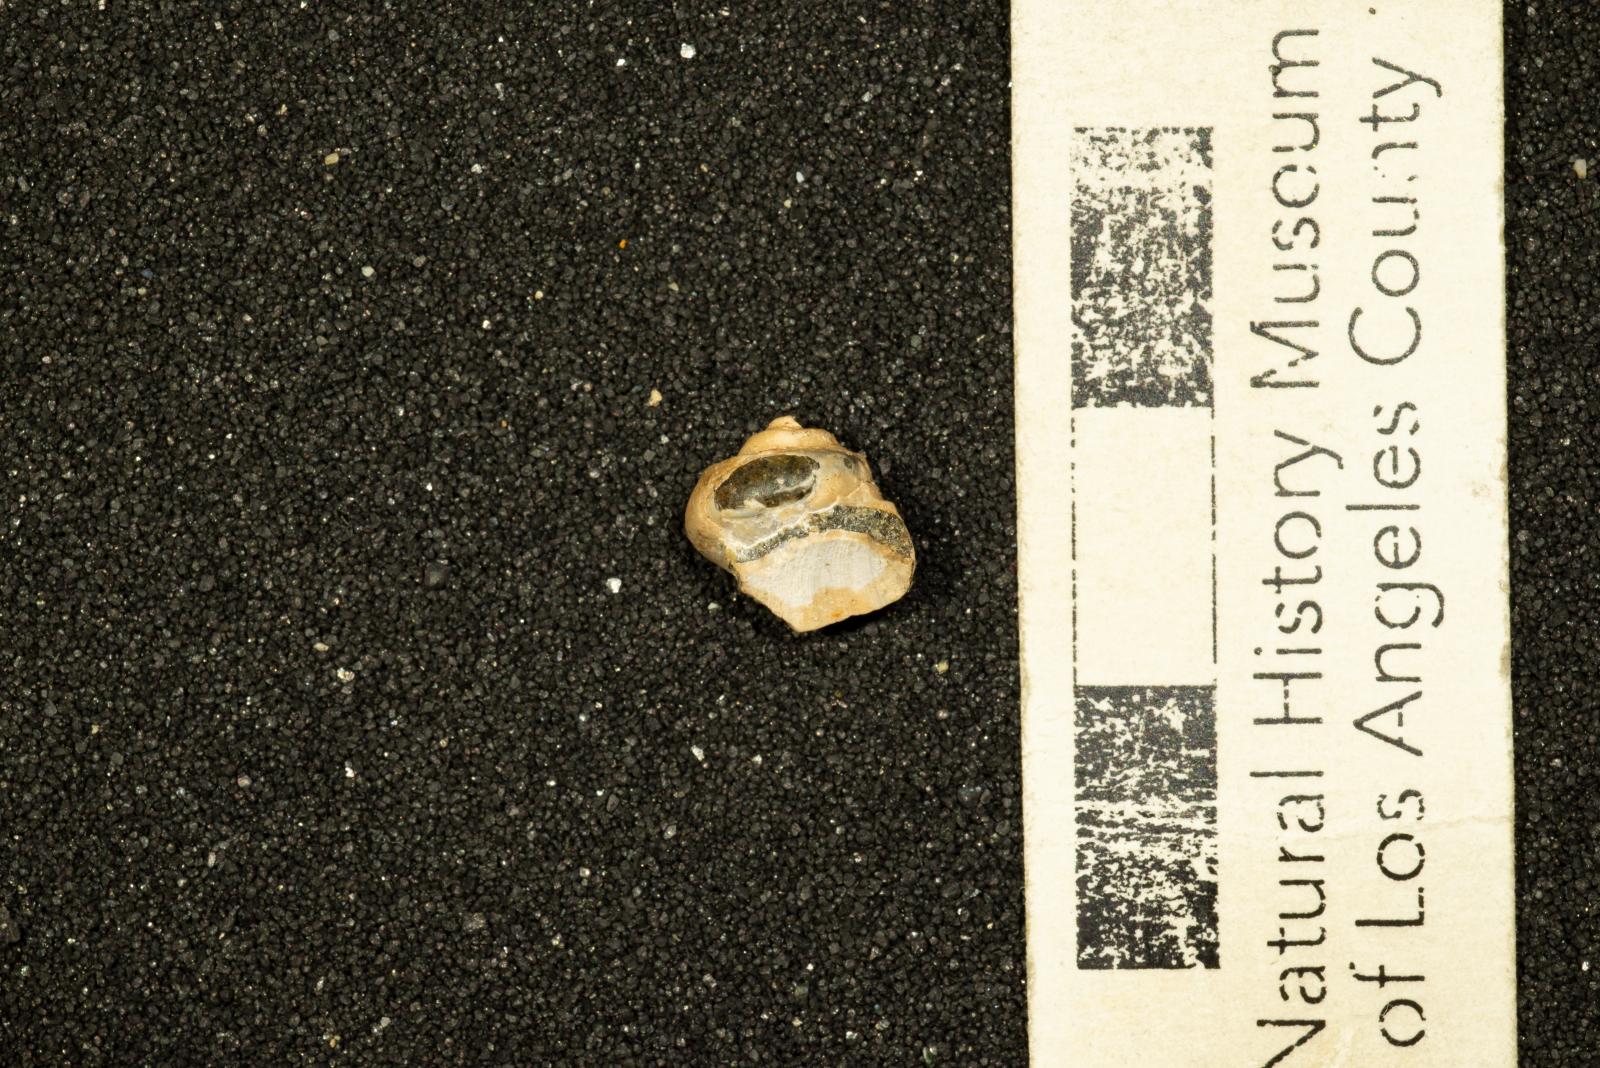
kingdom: Animalia
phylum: Mollusca
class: Bivalvia
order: Ostreida
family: Pteriidae
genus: Atira
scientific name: Atira Angaria ornatissima
